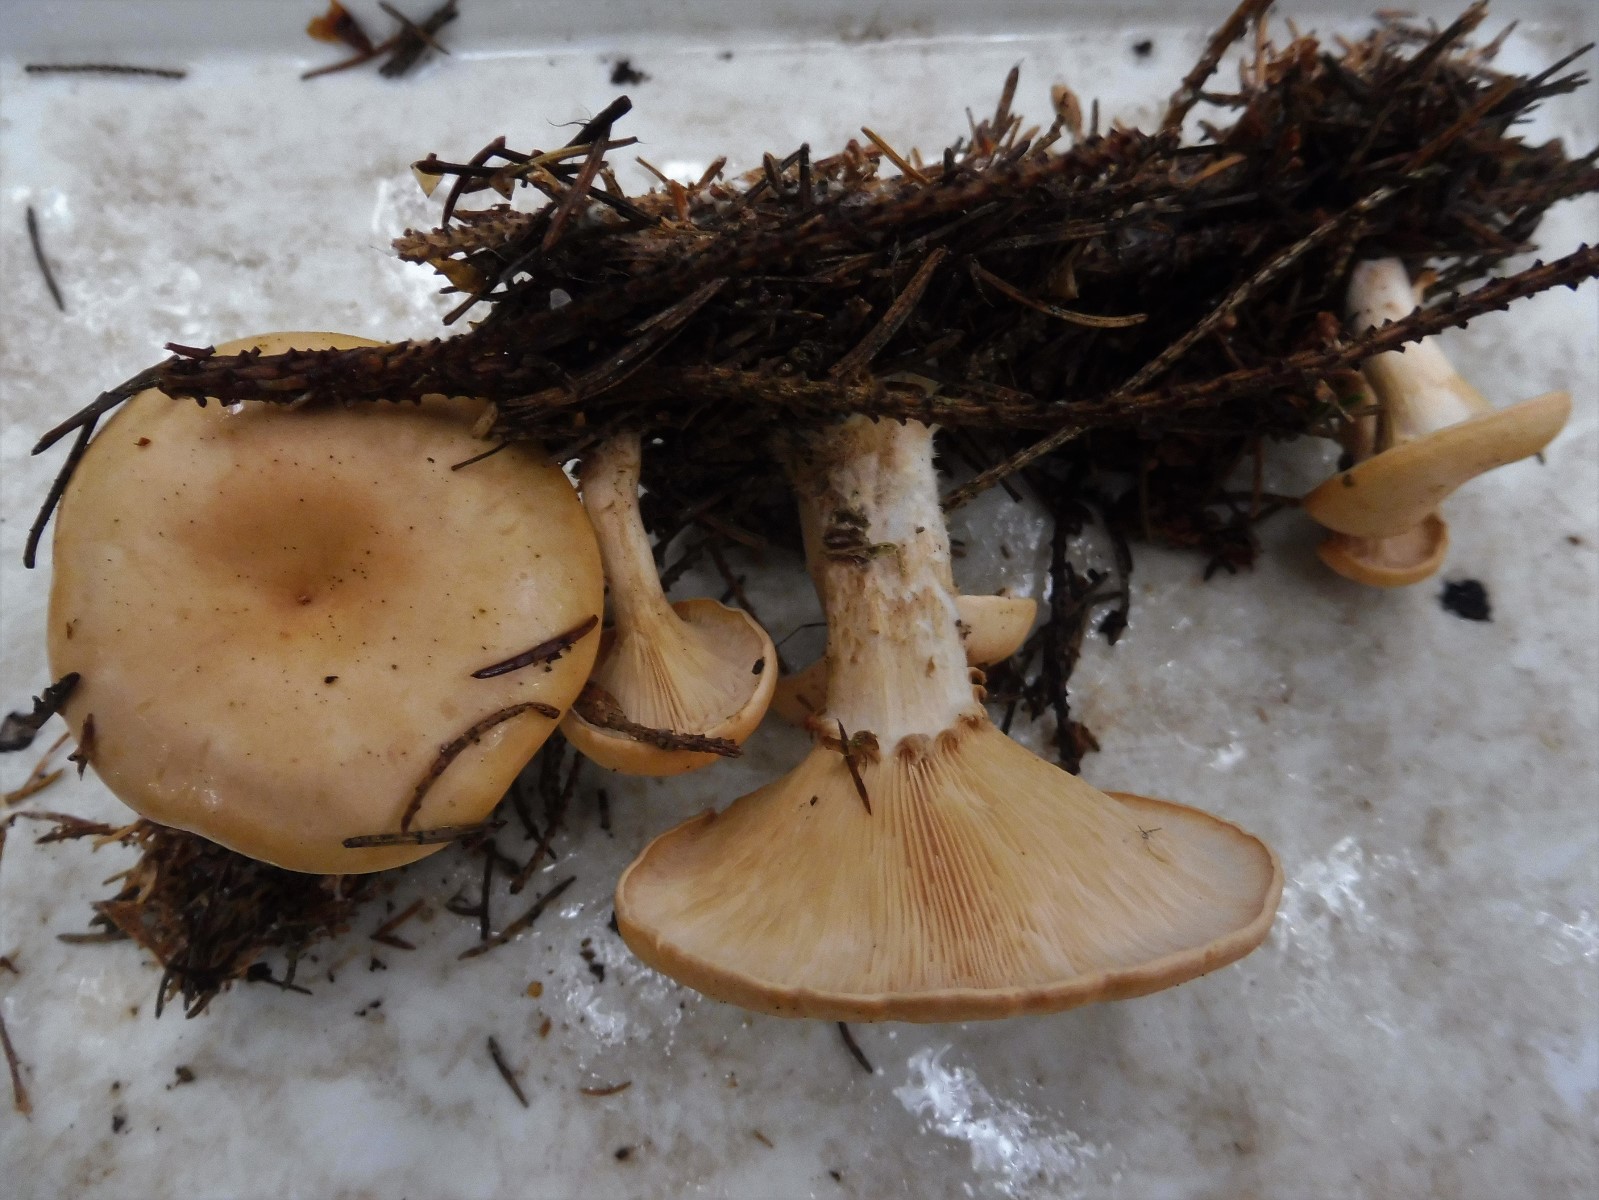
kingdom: Fungi
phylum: Basidiomycota
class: Agaricomycetes
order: Agaricales
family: Tricholomataceae
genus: Paralepista
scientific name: Paralepista flaccida
